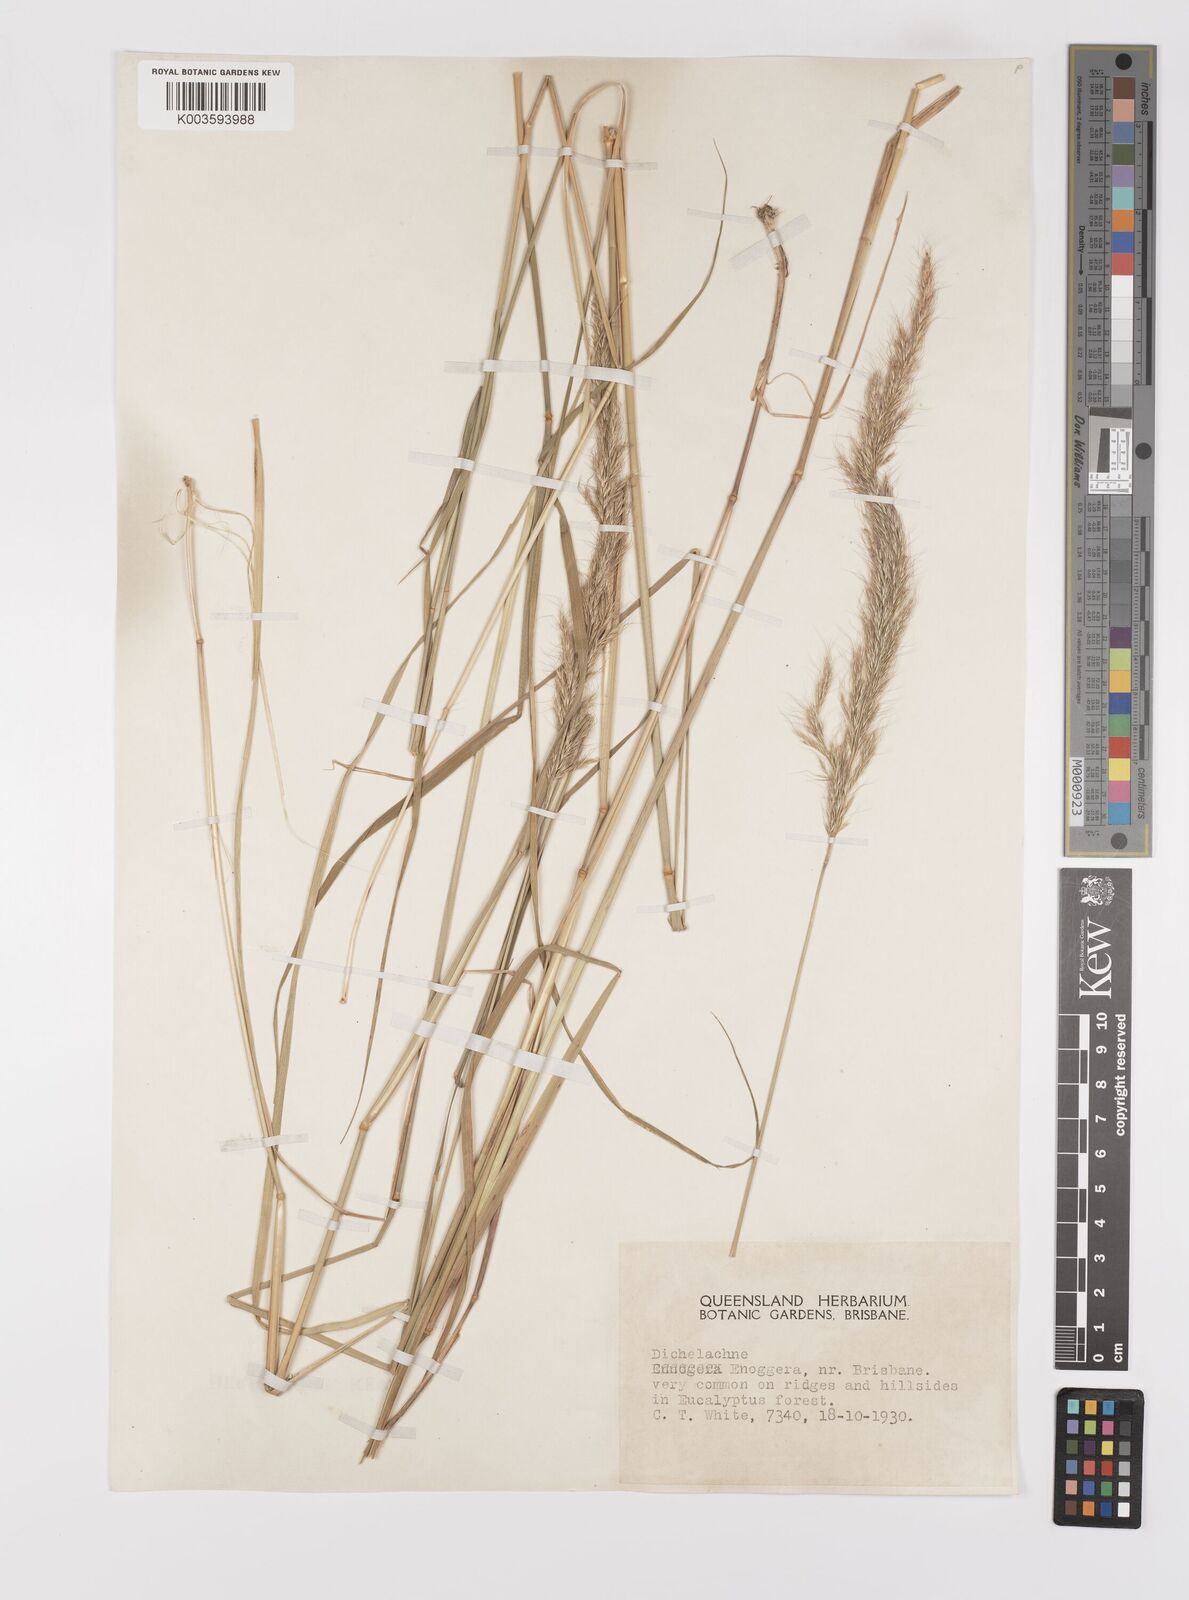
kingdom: Plantae
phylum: Tracheophyta
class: Liliopsida
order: Poales
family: Poaceae
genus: Dichelachne
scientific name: Dichelachne micrantha
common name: Plumegrass
